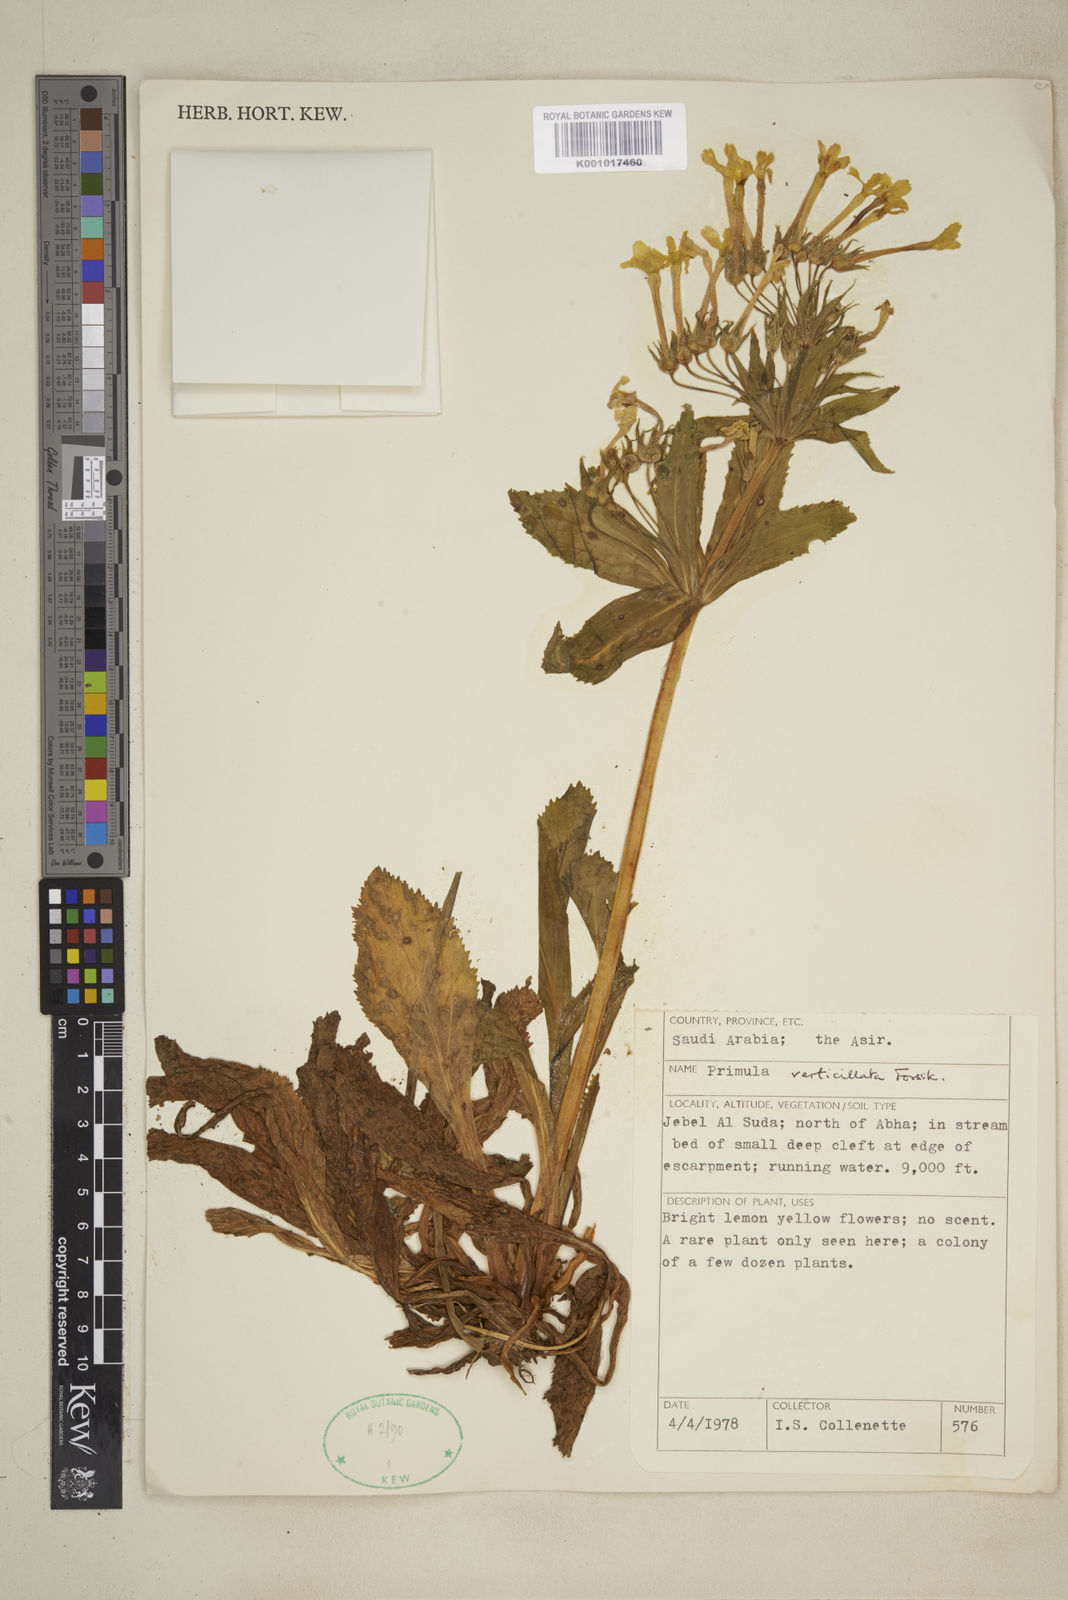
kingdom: Plantae
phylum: Tracheophyta
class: Magnoliopsida
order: Ericales
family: Primulaceae
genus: Evotrochis
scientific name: Evotrochis verticillata
